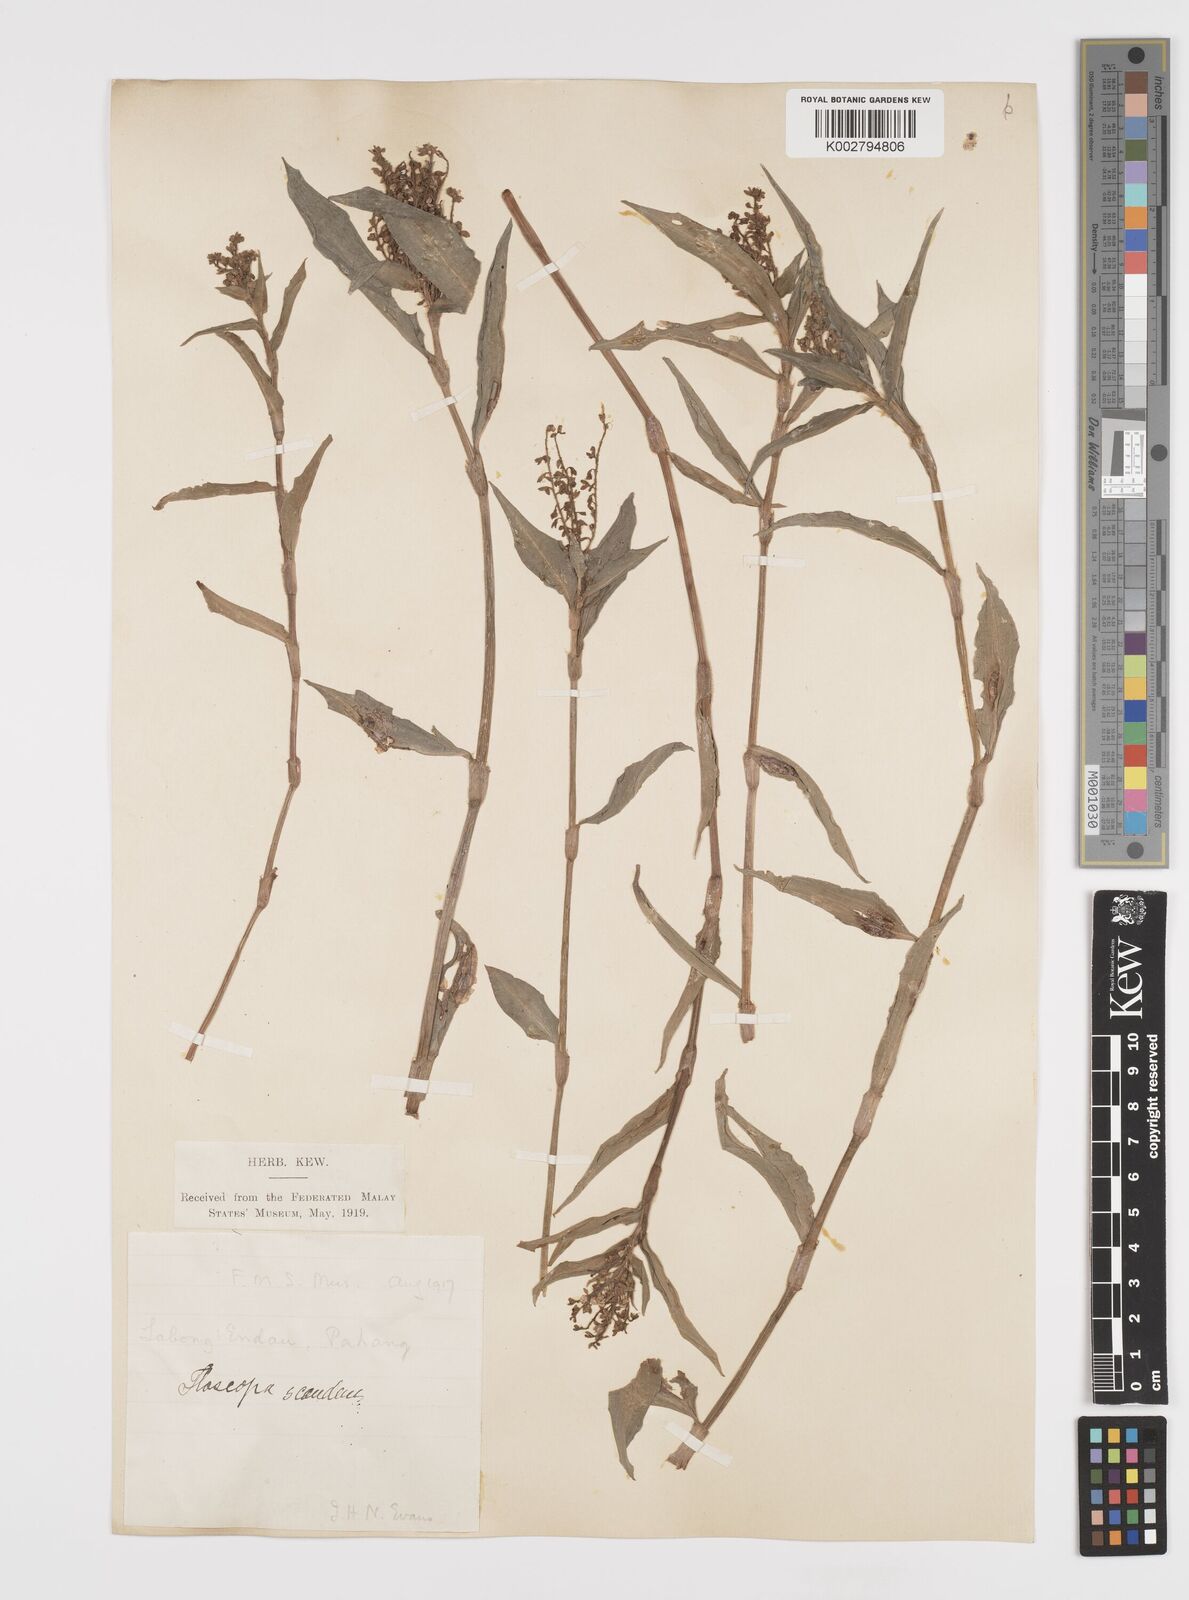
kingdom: Plantae
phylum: Tracheophyta
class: Liliopsida
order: Commelinales
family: Commelinaceae
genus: Floscopa
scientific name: Floscopa scandens
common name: Climbing flower cup
